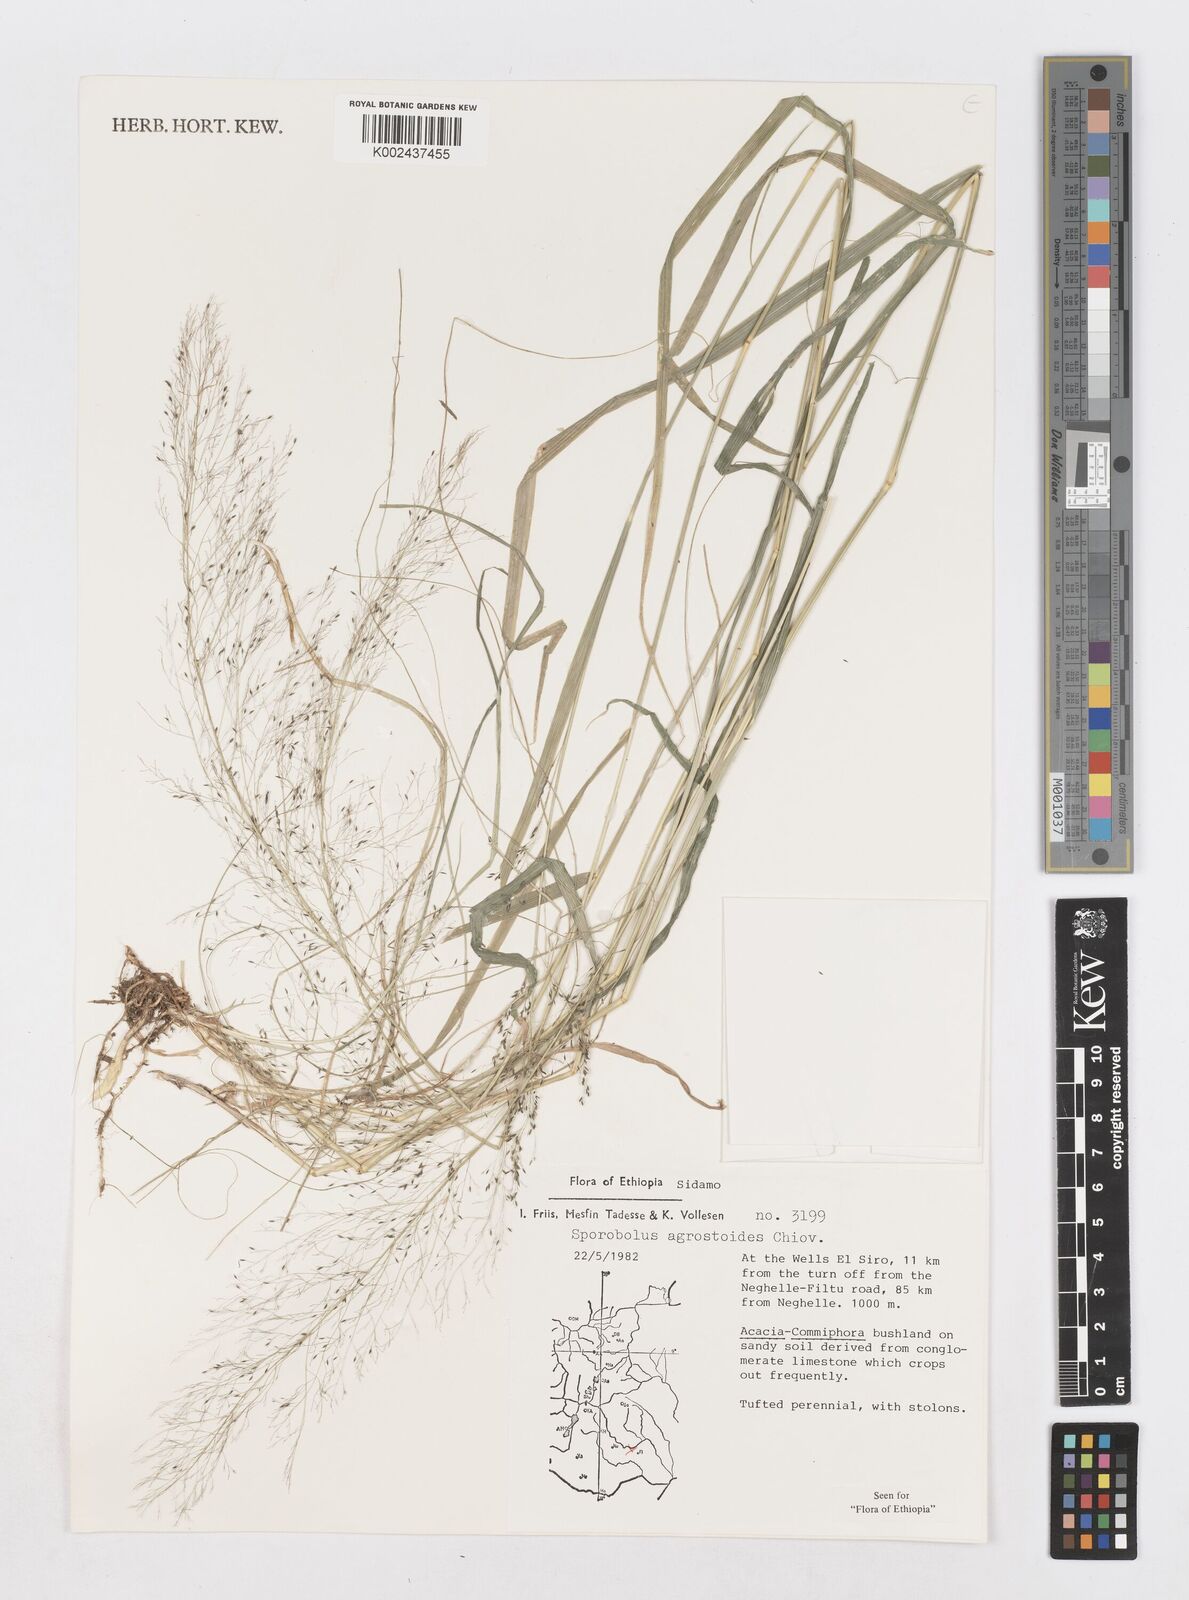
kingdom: Plantae
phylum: Tracheophyta
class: Liliopsida
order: Poales
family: Poaceae
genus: Sporobolus
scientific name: Sporobolus agrostoides
